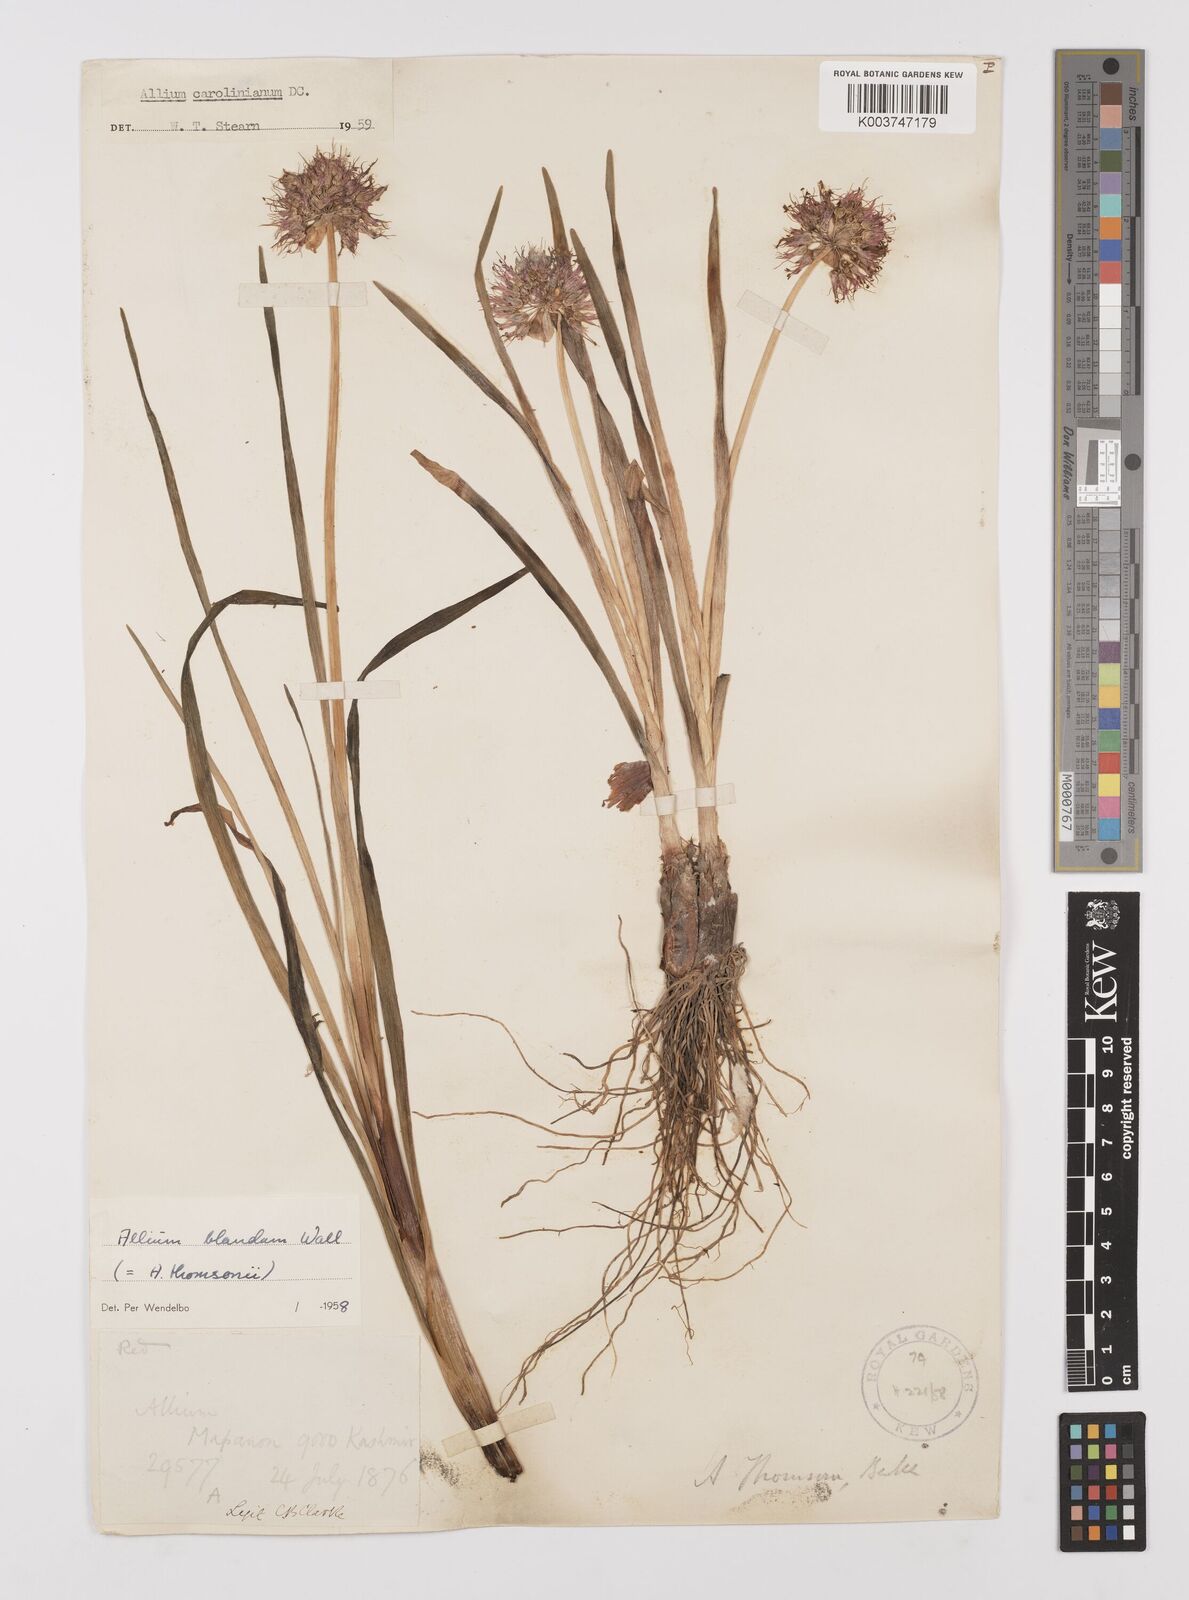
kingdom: Plantae
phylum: Tracheophyta
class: Liliopsida
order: Asparagales
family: Amaryllidaceae
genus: Allium
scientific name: Allium carolinianum
